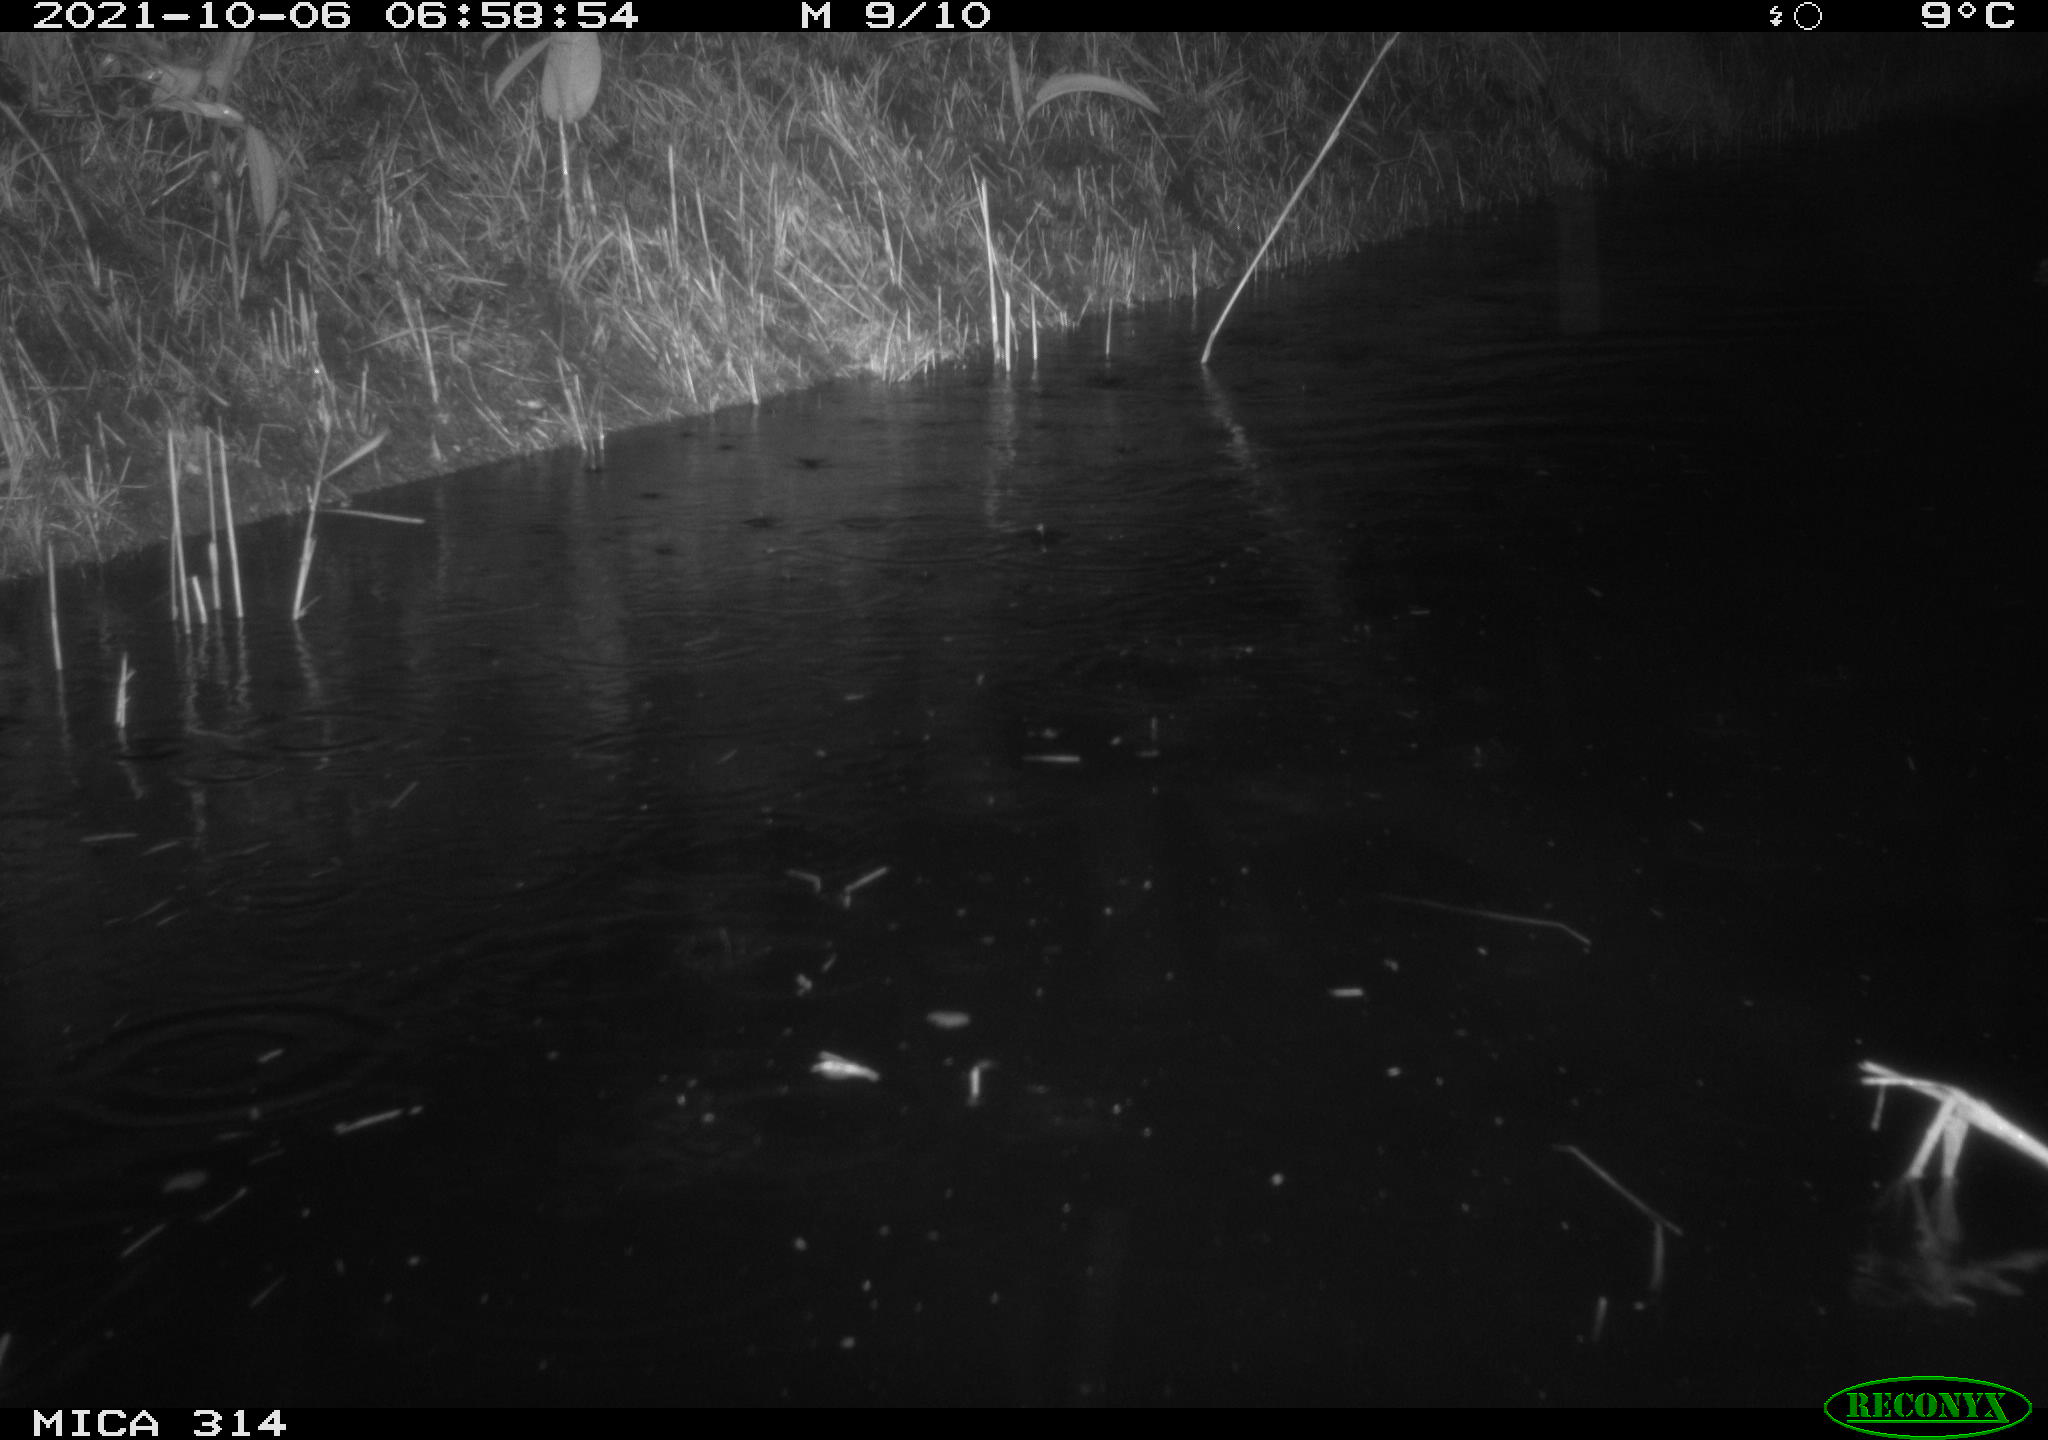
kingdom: Animalia
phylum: Chordata
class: Mammalia
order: Rodentia
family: Muridae
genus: Rattus
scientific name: Rattus norvegicus
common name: Brown rat
